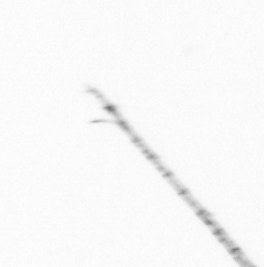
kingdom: Chromista
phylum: Ochrophyta
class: Bacillariophyceae
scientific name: Bacillariophyceae
